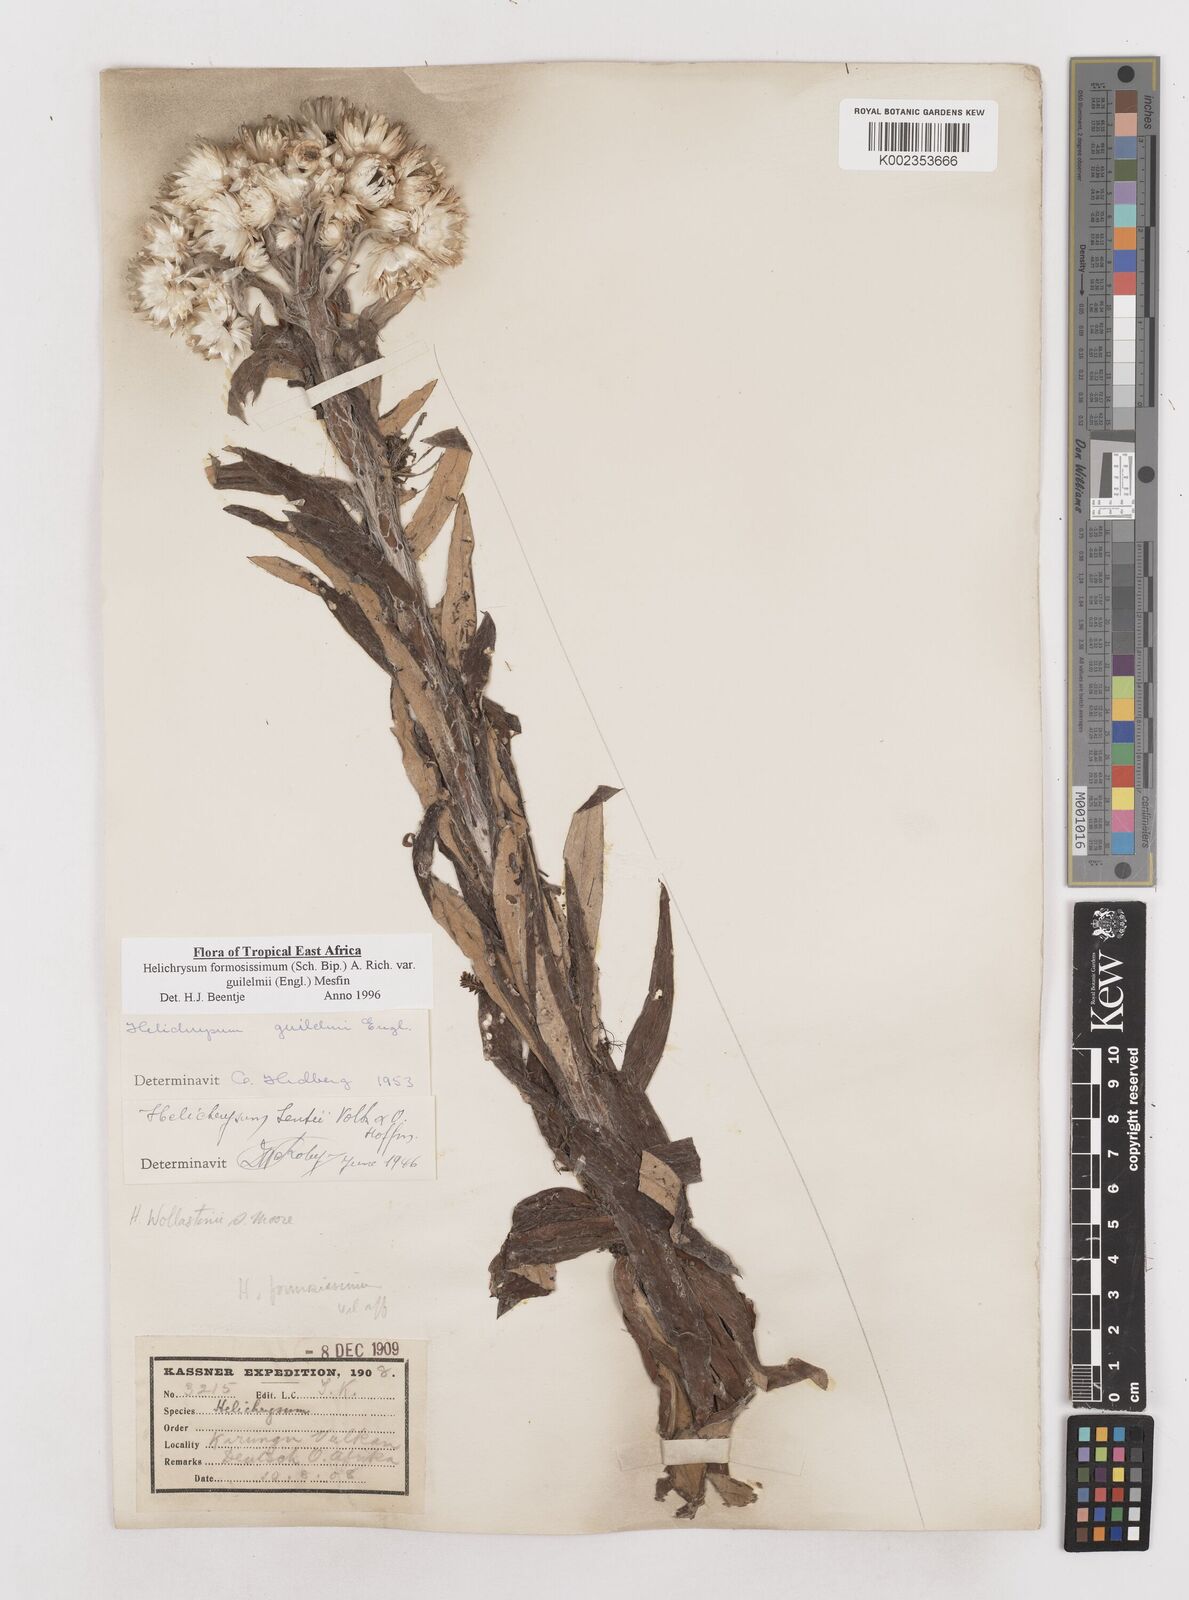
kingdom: Plantae
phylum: Tracheophyta
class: Magnoliopsida
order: Asterales
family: Asteraceae
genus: Helichrysum
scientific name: Helichrysum formosissimum
